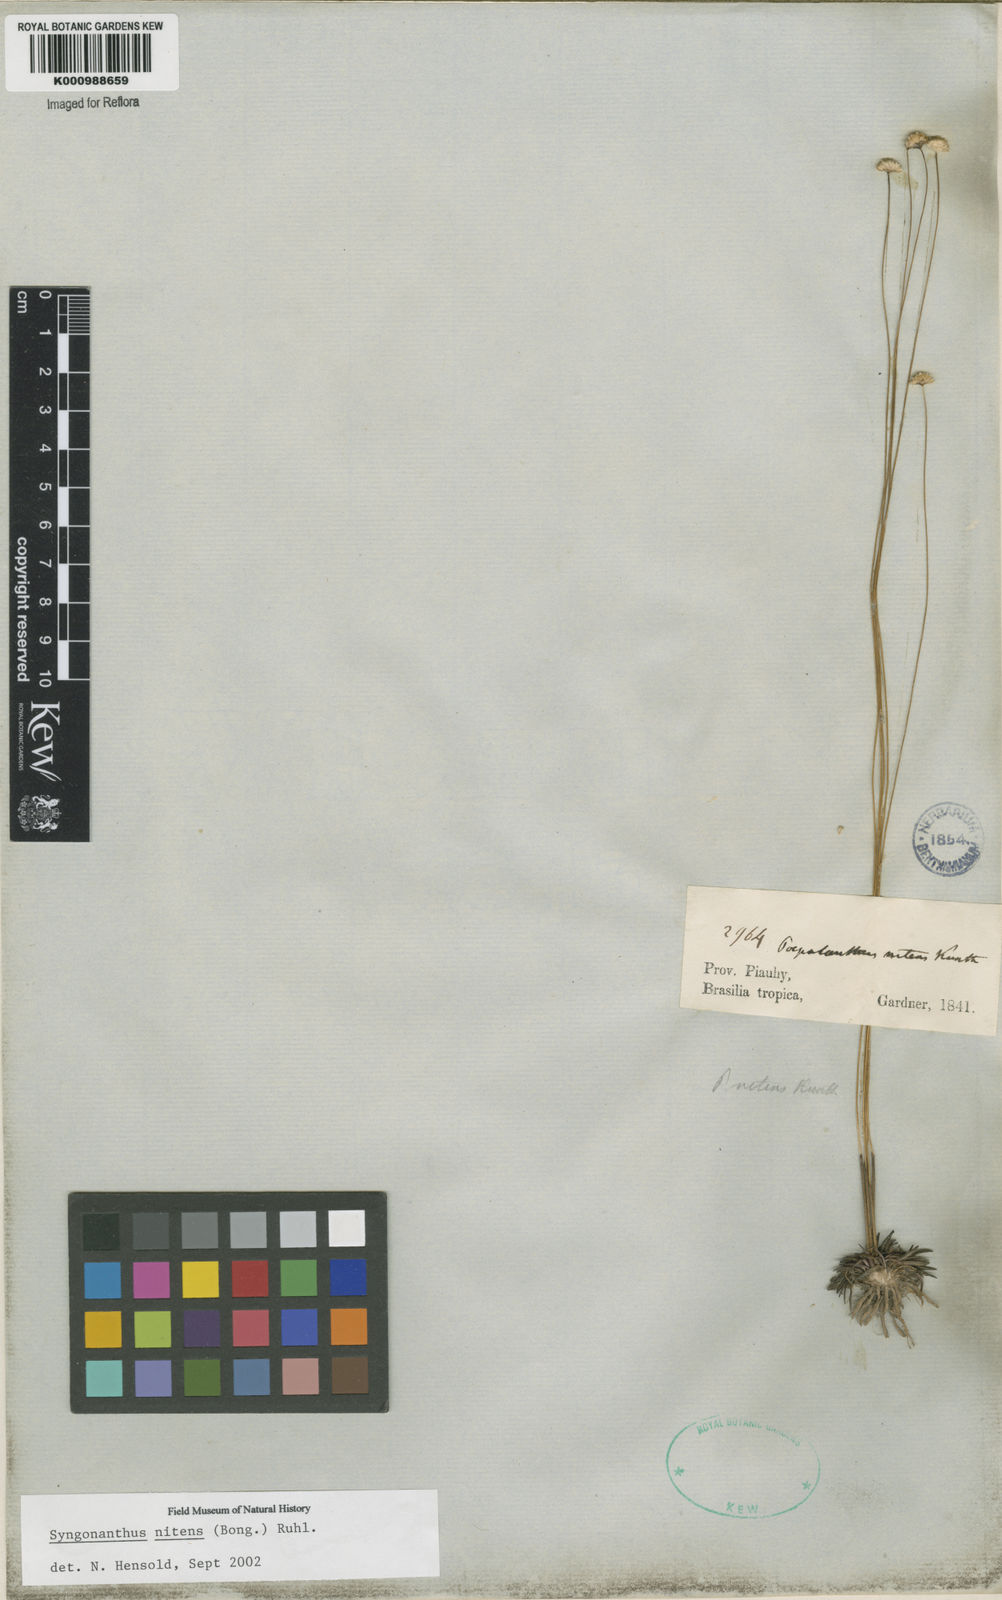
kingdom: Plantae
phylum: Tracheophyta
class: Liliopsida
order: Poales
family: Eriocaulaceae
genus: Syngonanthus
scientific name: Syngonanthus nitens
